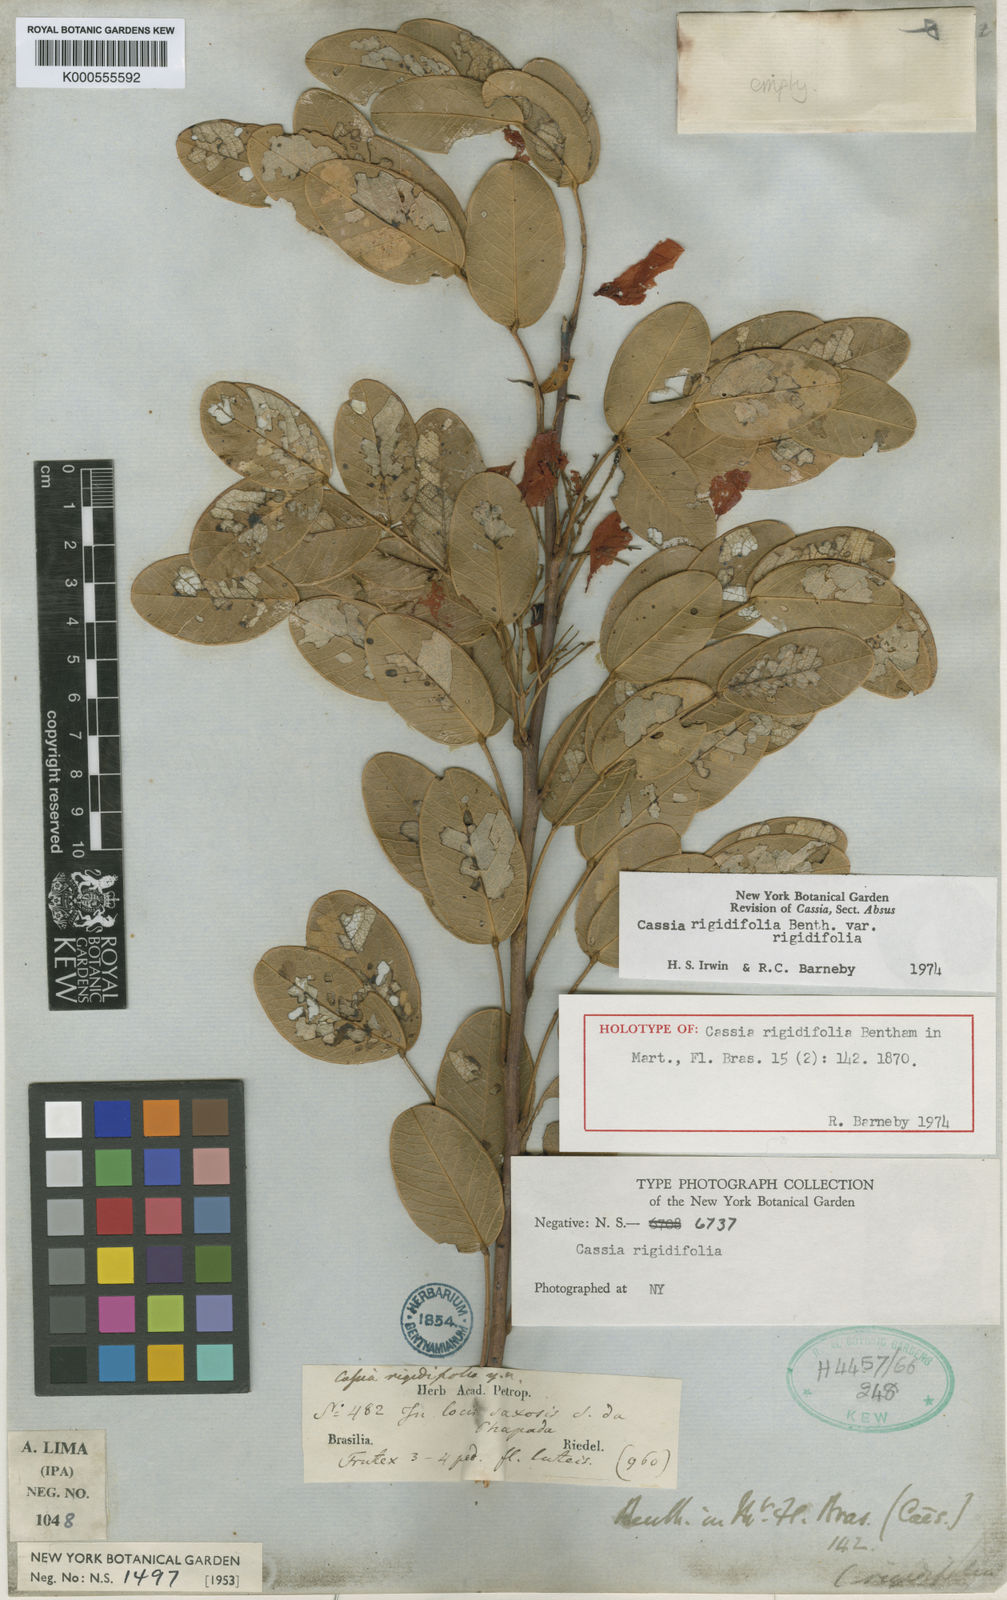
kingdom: Plantae
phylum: Tracheophyta
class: Magnoliopsida
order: Fabales
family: Fabaceae
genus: Chamaecrista
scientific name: Chamaecrista rigidifolia
